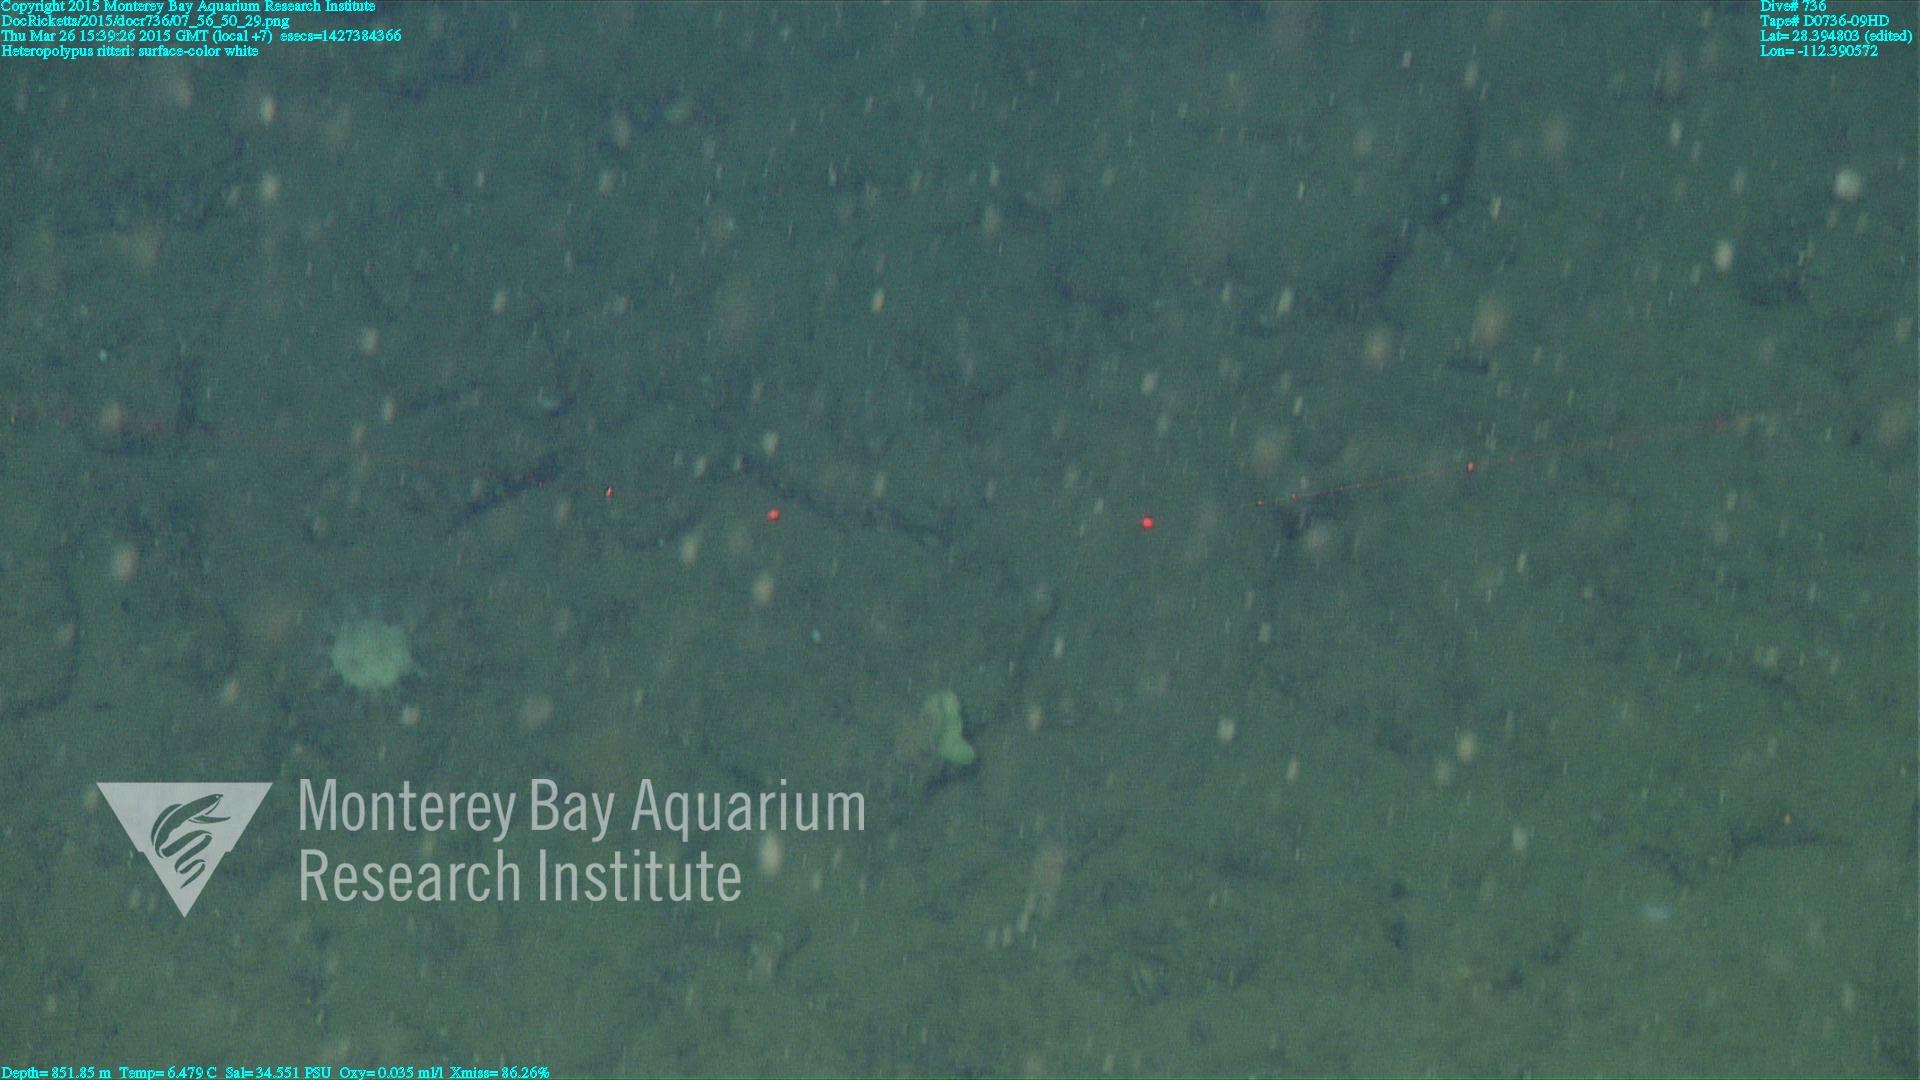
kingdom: Animalia
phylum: Cnidaria
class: Anthozoa
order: Scleralcyonacea
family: Coralliidae
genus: Heteropolypus
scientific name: Heteropolypus ritteri
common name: Ritter's soft coral
